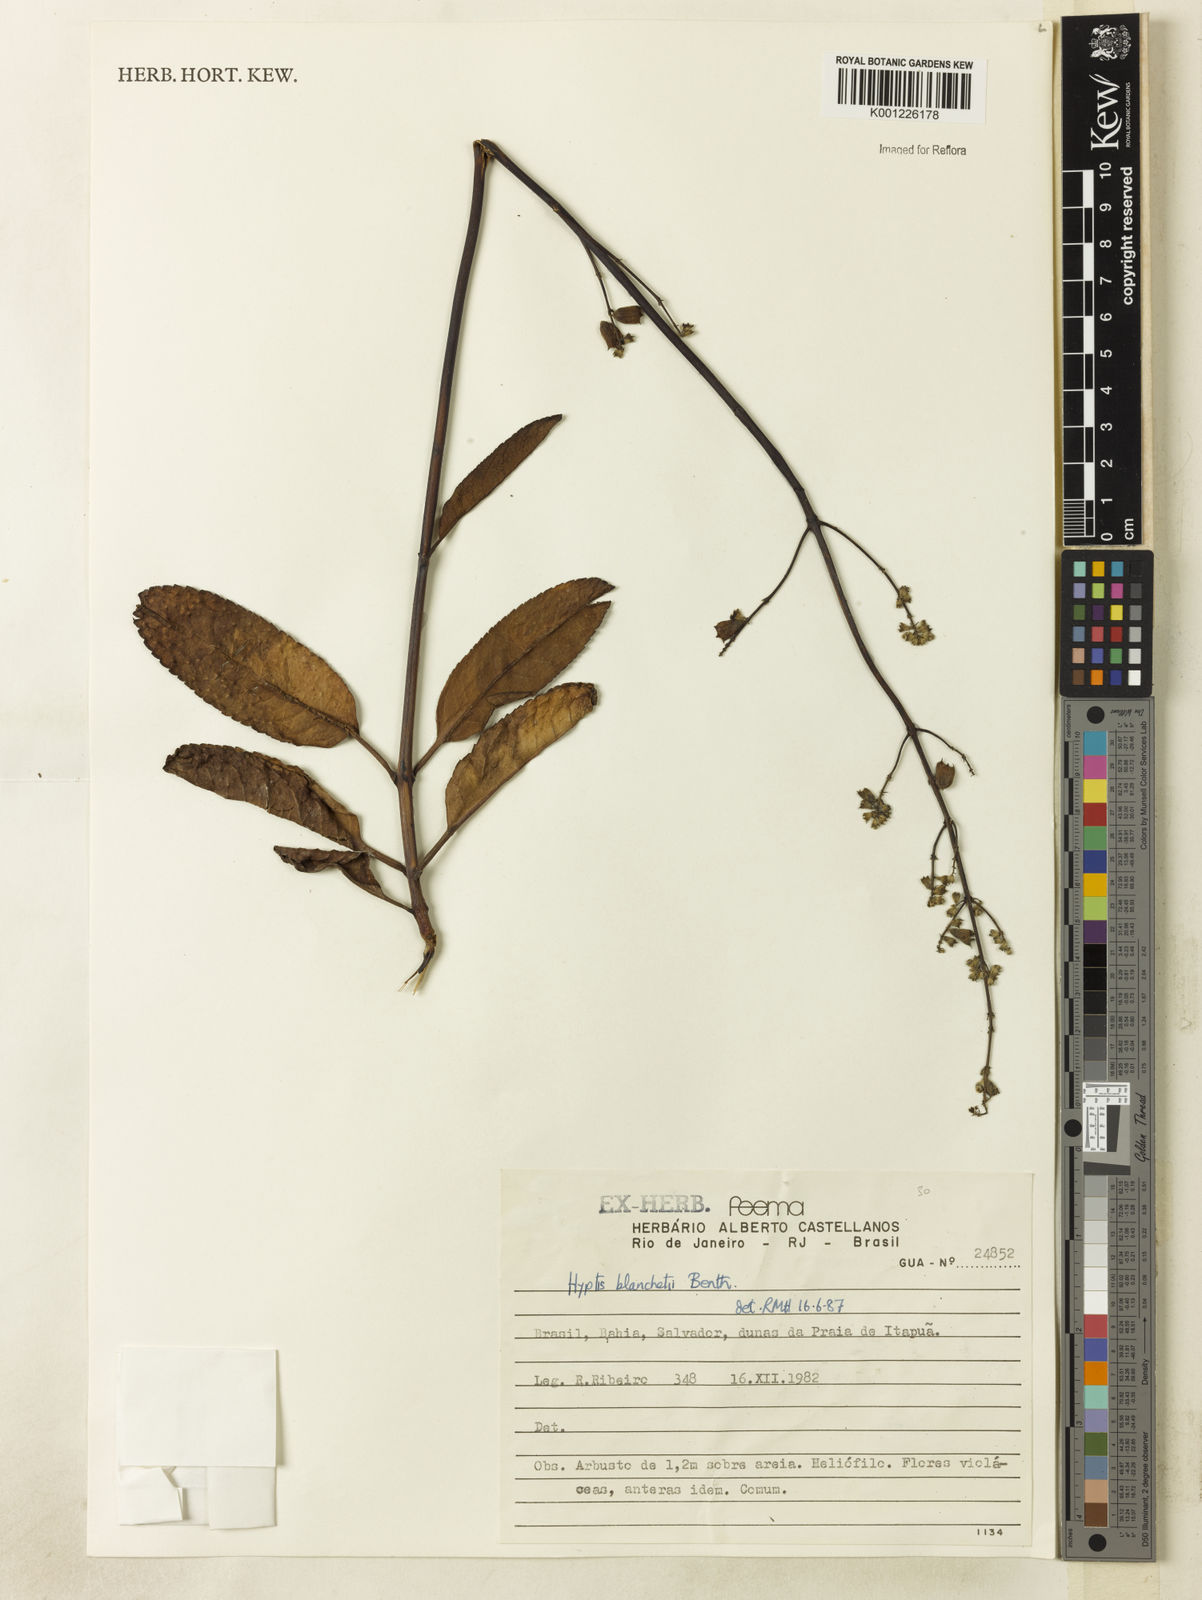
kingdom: Plantae
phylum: Tracheophyta
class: Magnoliopsida
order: Lamiales
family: Lamiaceae
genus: Eriope
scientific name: Eriope blanchetii
